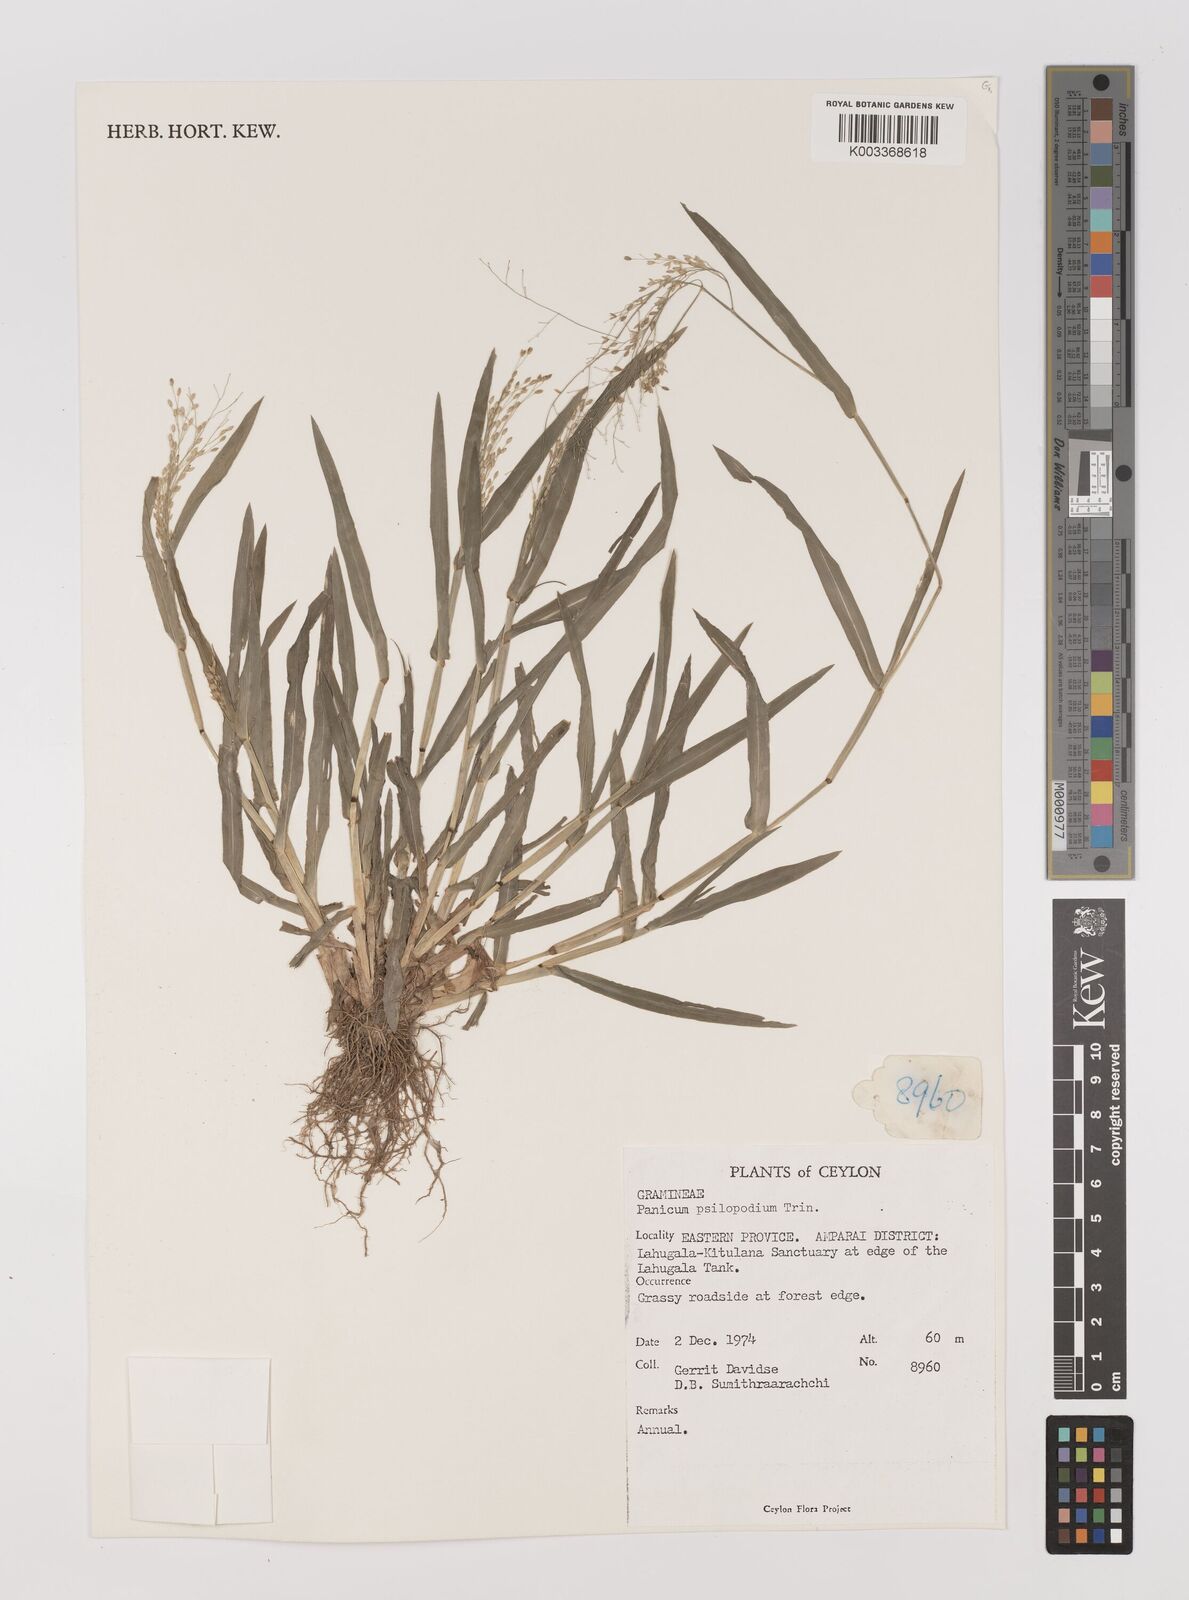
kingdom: Plantae
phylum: Tracheophyta
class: Liliopsida
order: Poales
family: Poaceae
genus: Panicum
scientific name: Panicum sumatrense
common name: Little millet
